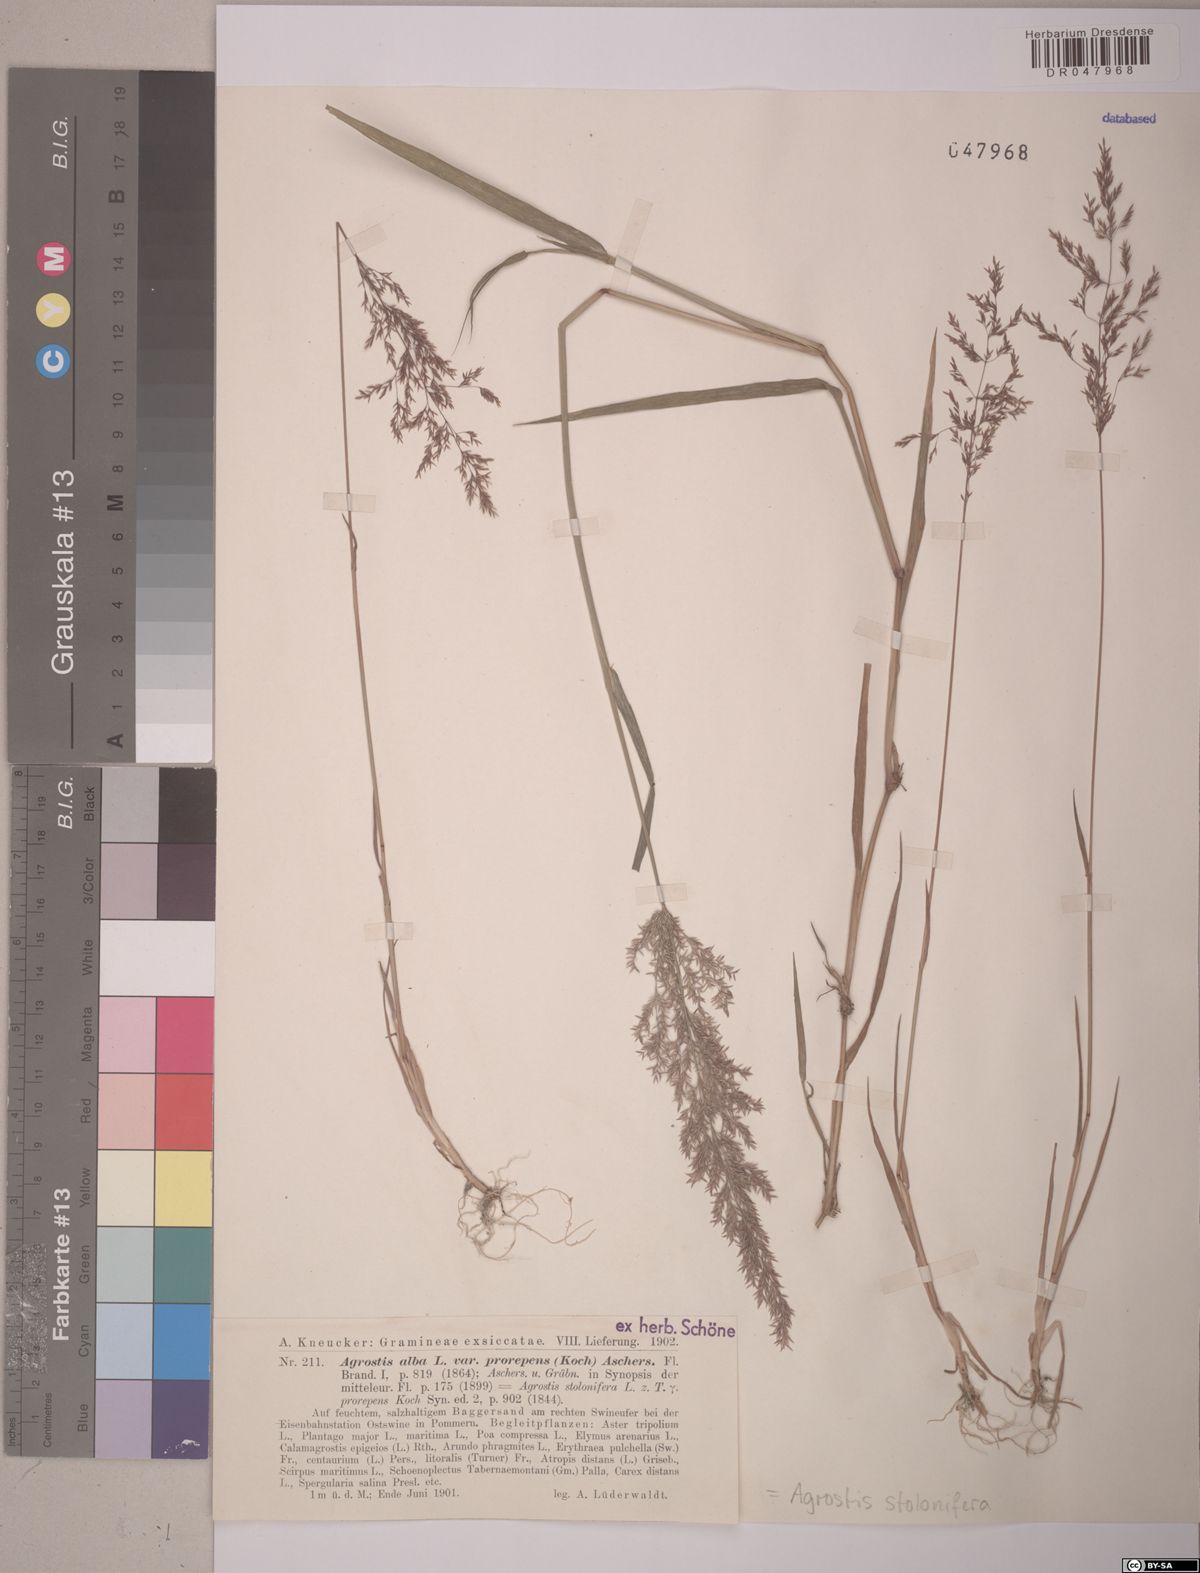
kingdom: Plantae
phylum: Tracheophyta
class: Liliopsida
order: Poales
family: Poaceae
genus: Agrostis
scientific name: Agrostis stolonifera
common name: Creeping bentgrass
